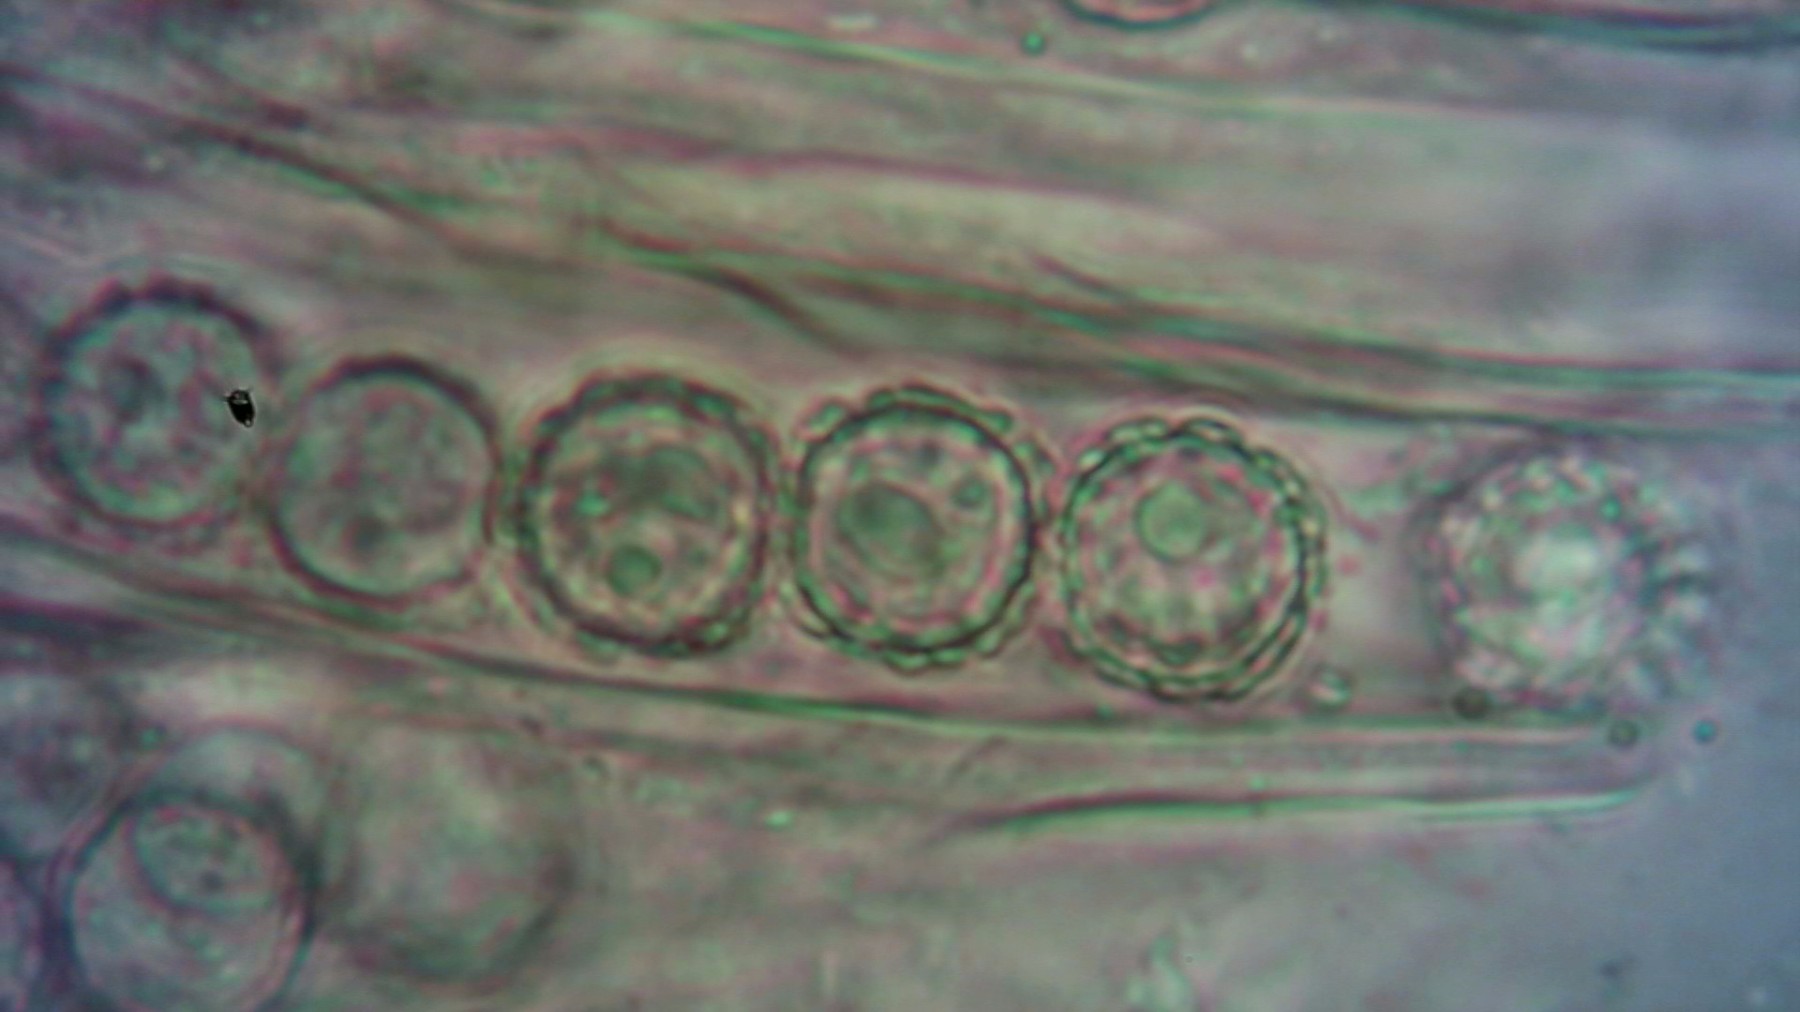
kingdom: Fungi
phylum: Ascomycota
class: Pezizomycetes
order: Pezizales
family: Pyronemataceae
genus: Plicaria
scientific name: Plicaria carbonaria
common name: pigsporet bålbæger
